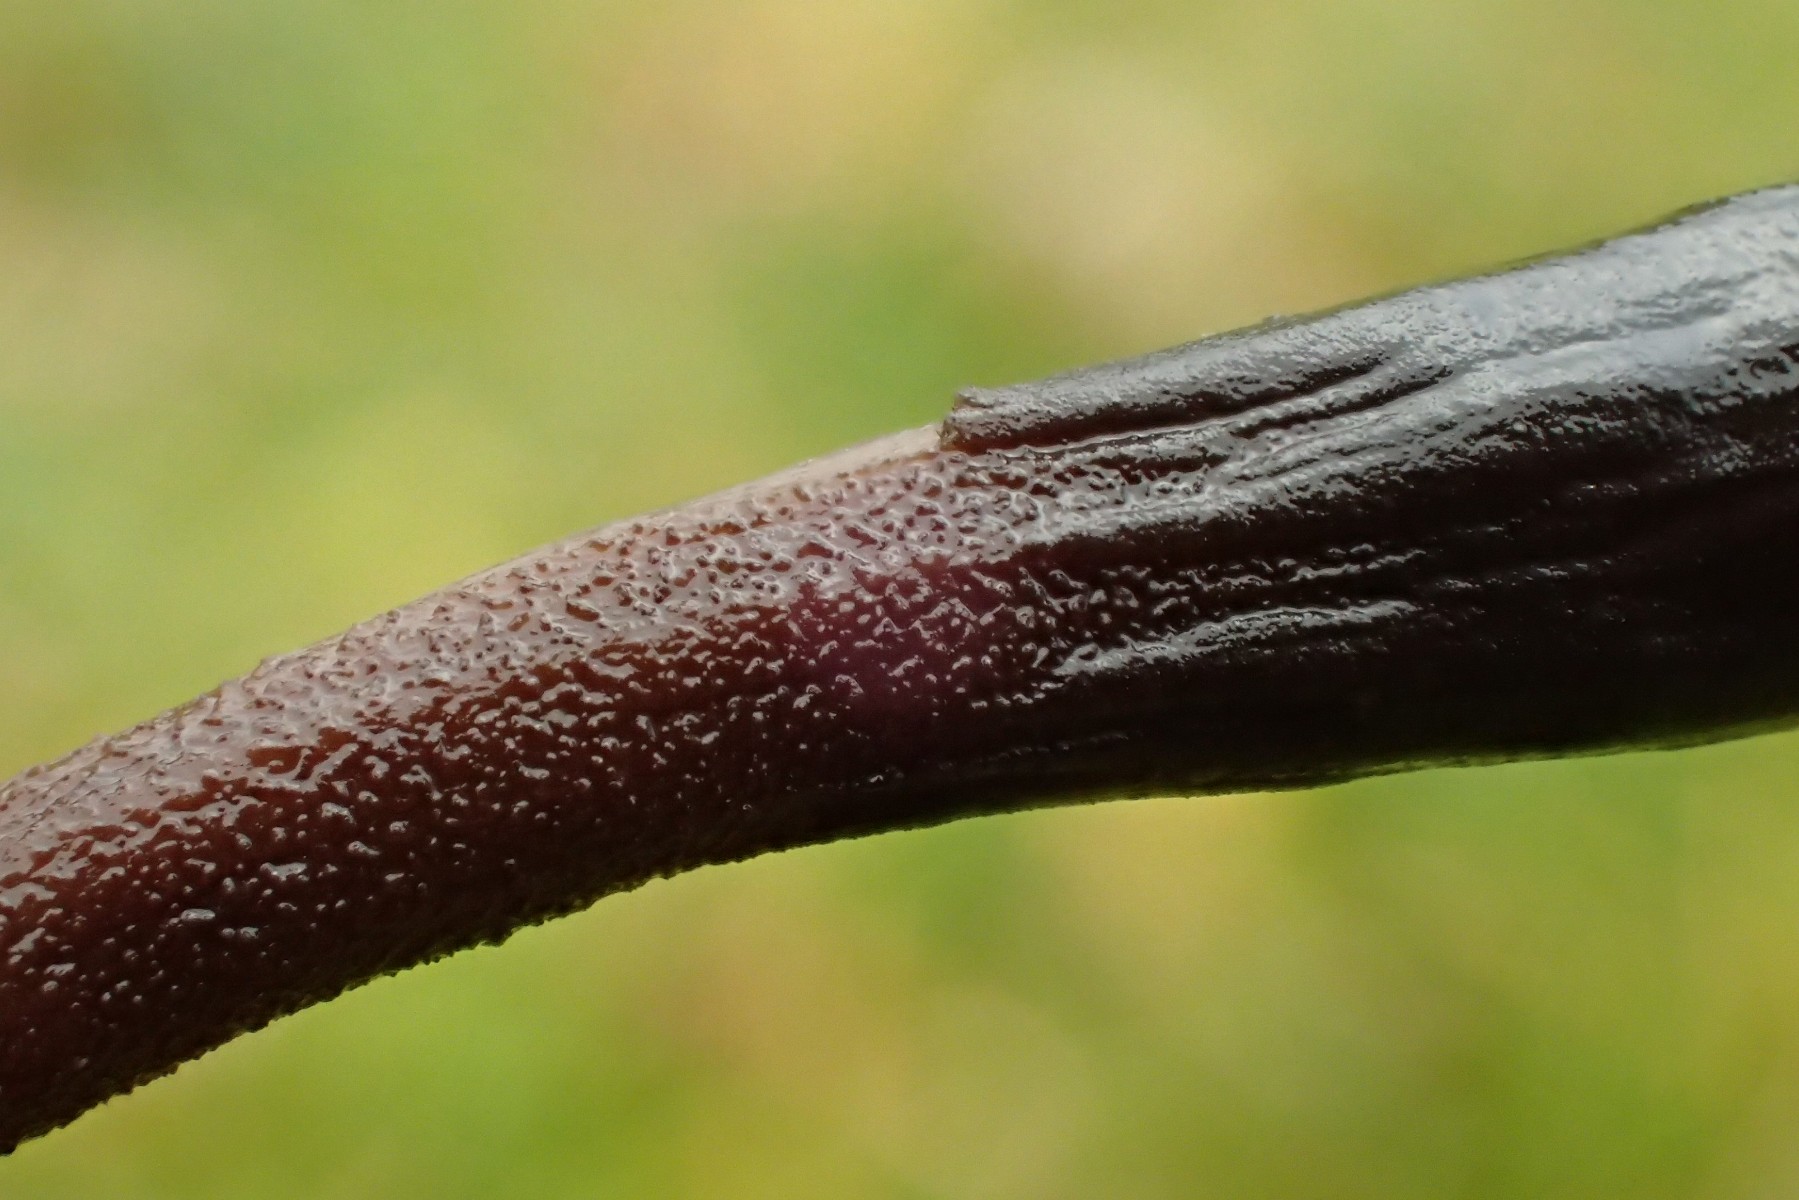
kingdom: Fungi
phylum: Ascomycota
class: Geoglossomycetes
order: Geoglossales
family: Geoglossaceae
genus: Geoglossum
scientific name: Geoglossum umbratile
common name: slank jordtunge
